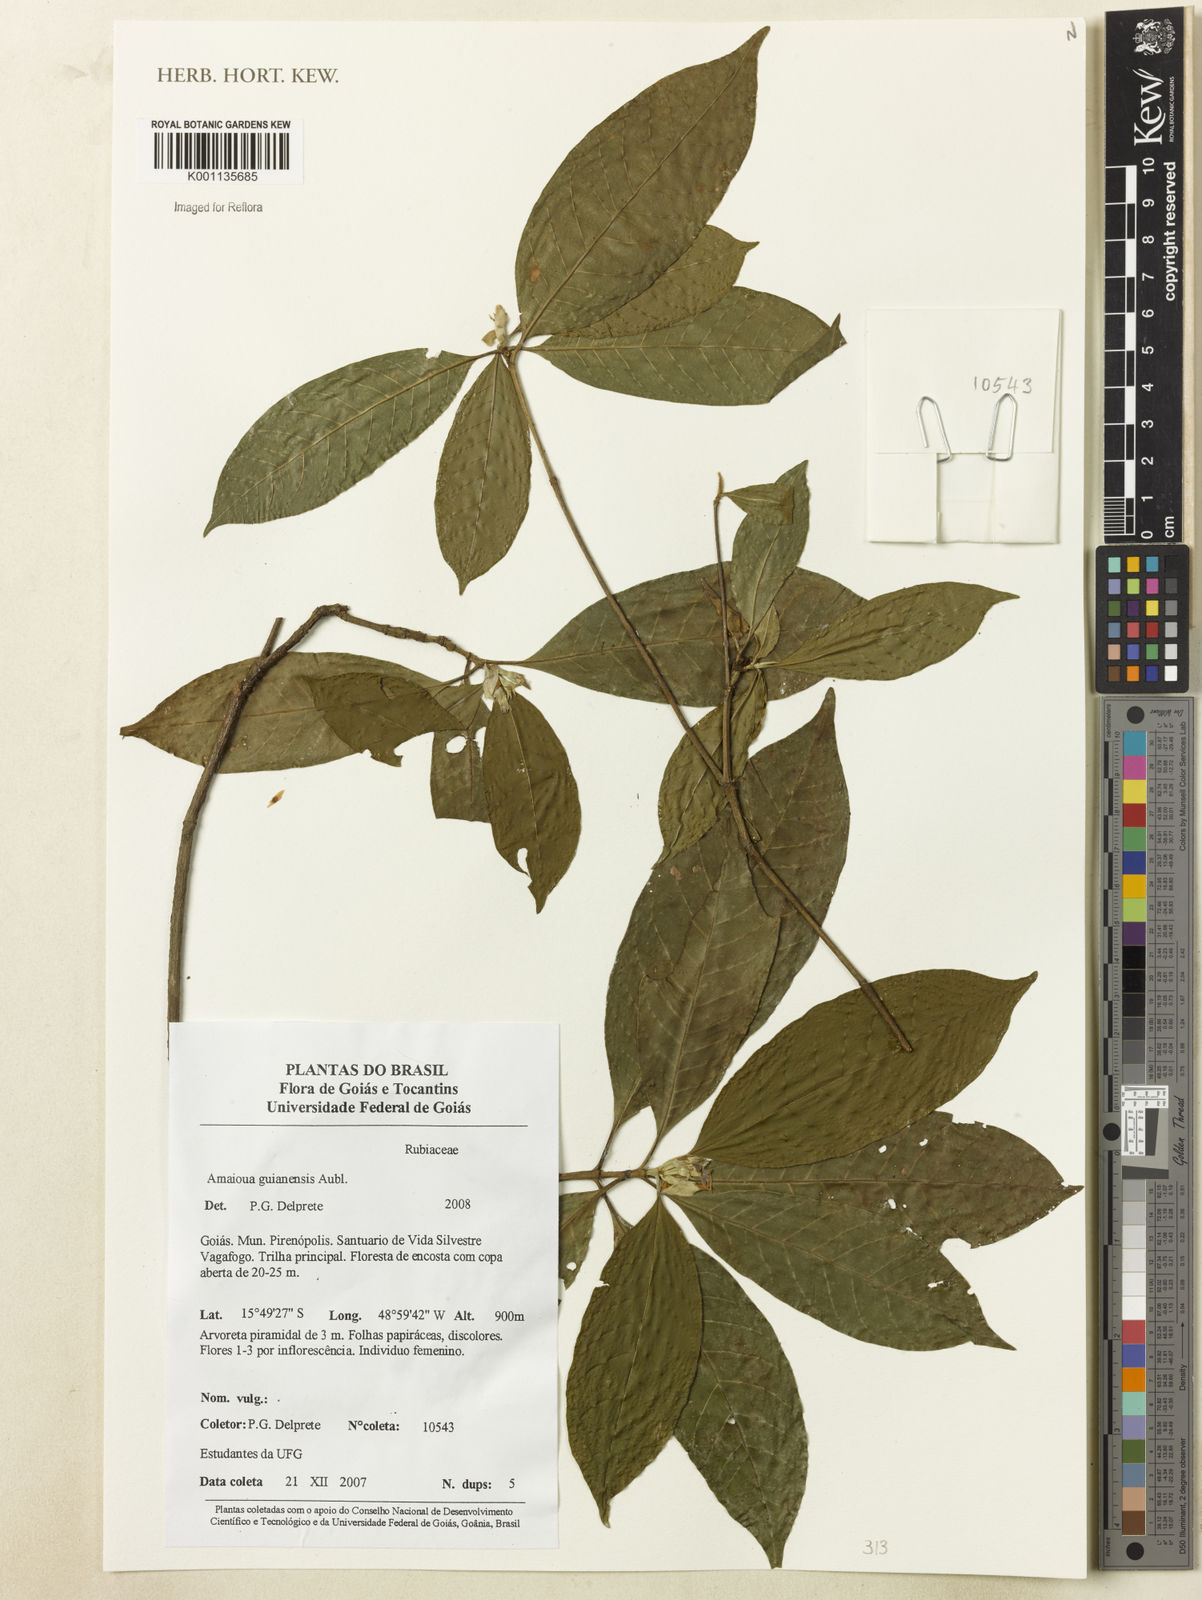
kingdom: Plantae
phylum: Tracheophyta
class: Magnoliopsida
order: Gentianales
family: Rubiaceae
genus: Amaioua
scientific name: Amaioua guianensis
